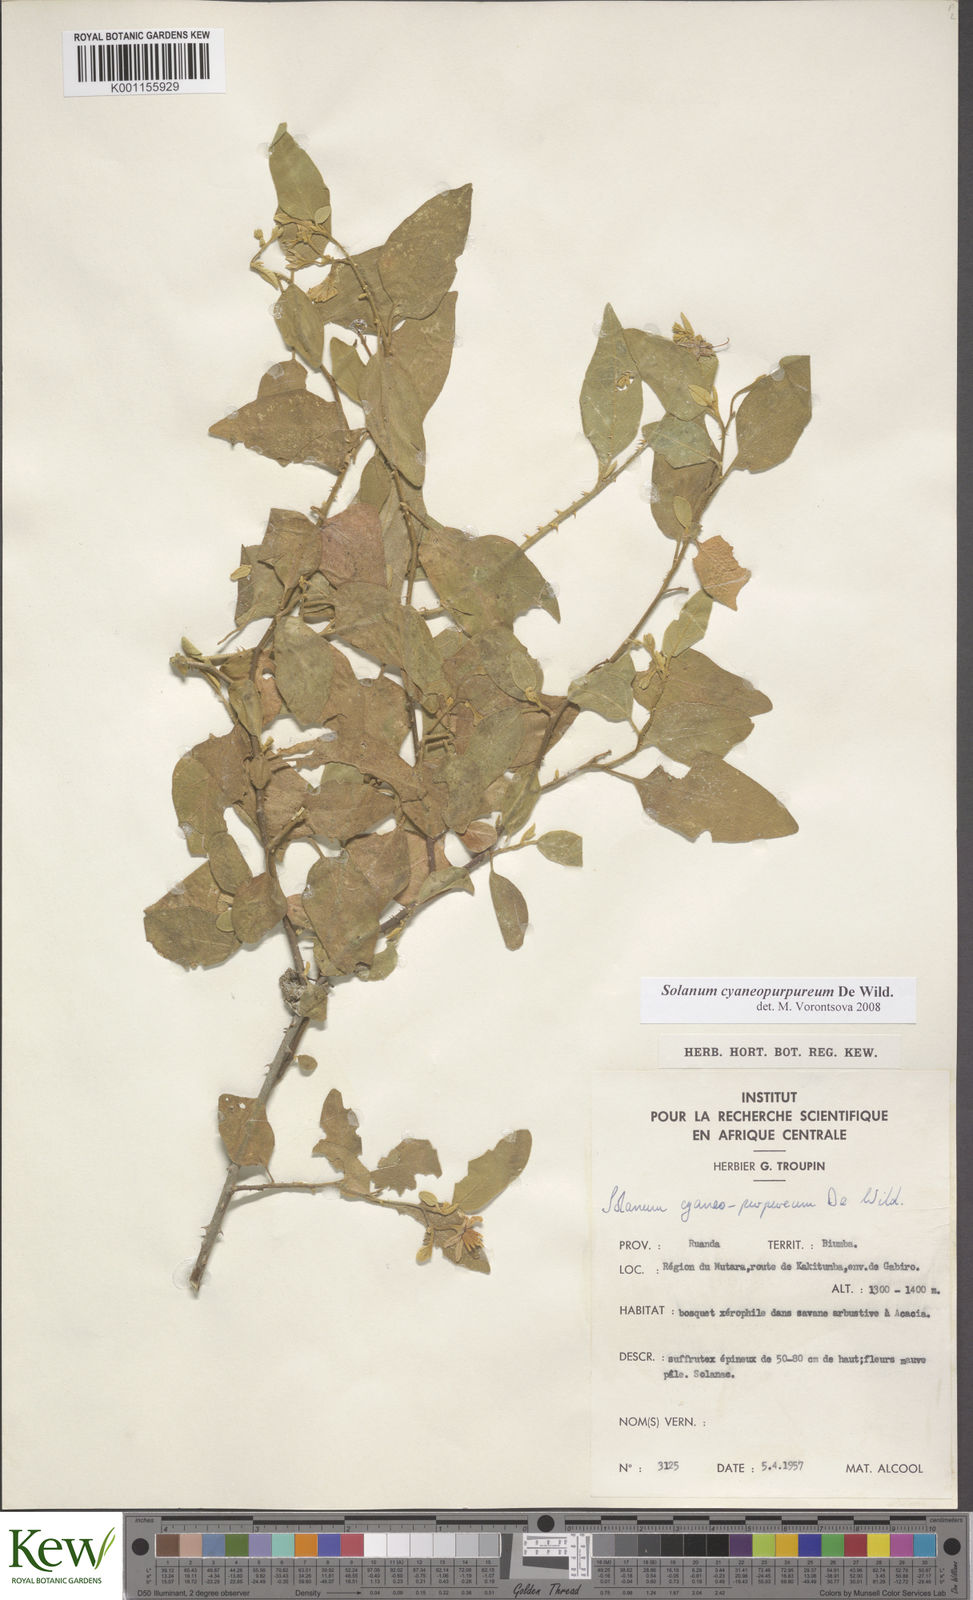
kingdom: Plantae
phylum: Tracheophyta
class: Magnoliopsida
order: Solanales
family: Solanaceae
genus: Solanum
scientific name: Solanum cyaneopurpureum
